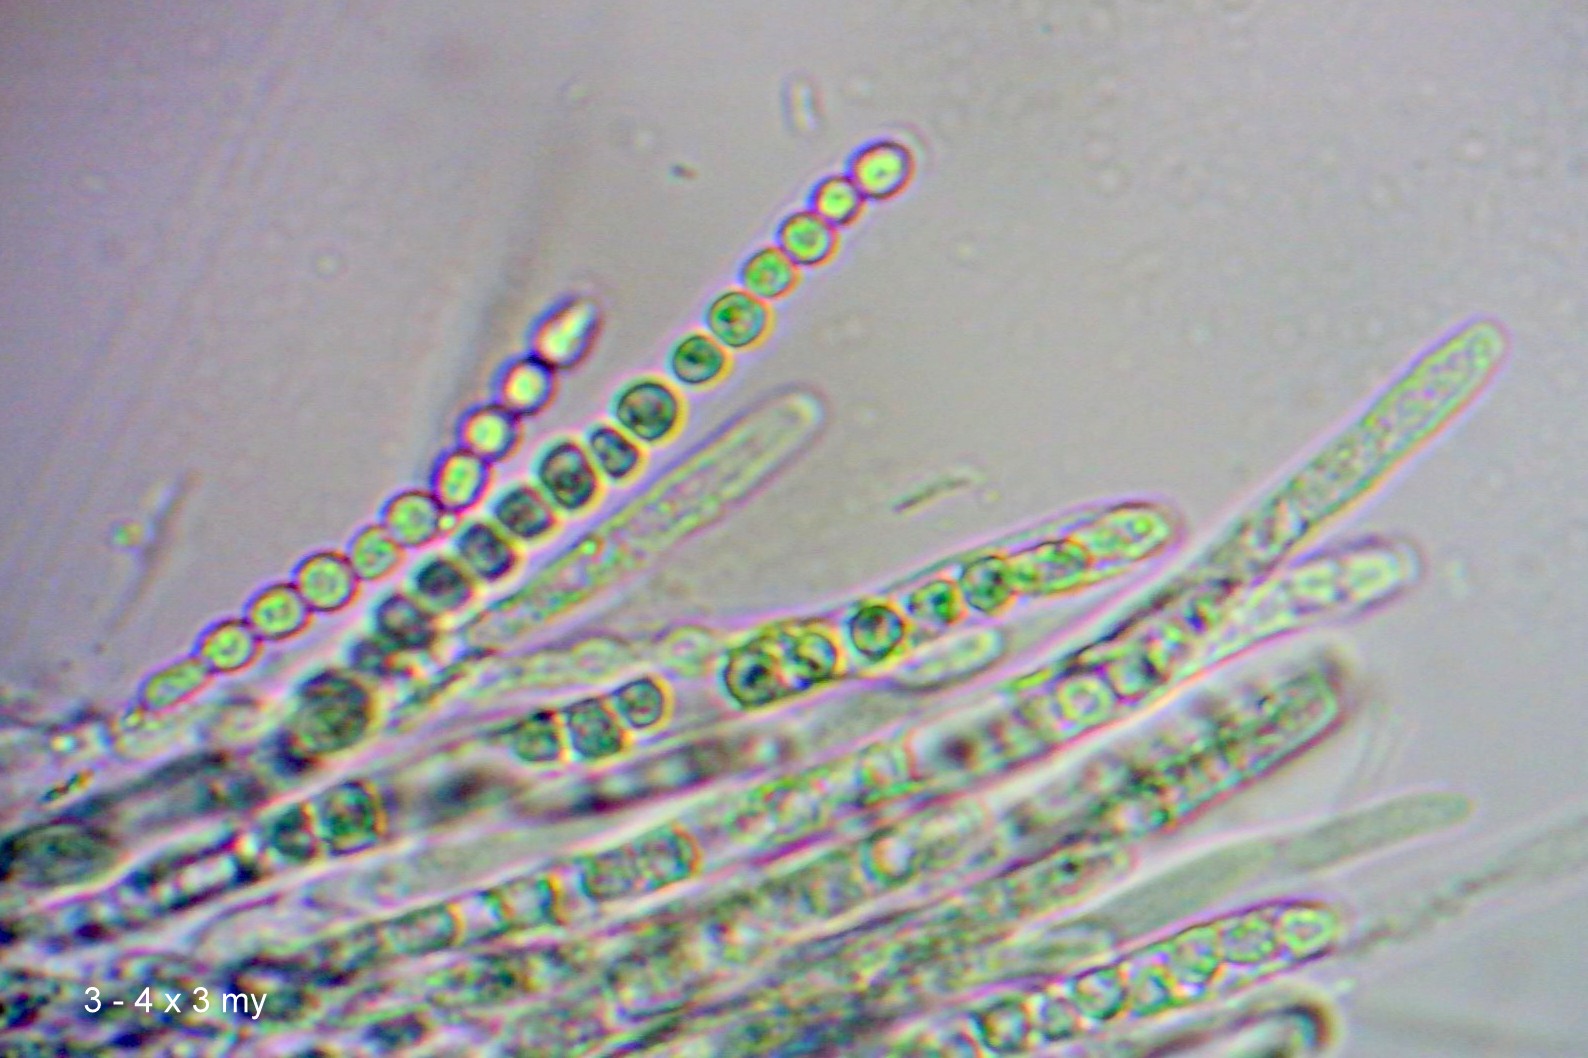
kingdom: Fungi
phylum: Ascomycota
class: Sordariomycetes
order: Hypocreales
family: Hypocreaceae
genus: Trichoderma
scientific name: Trichoderma europaeum
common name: rosabrun kødkerne
